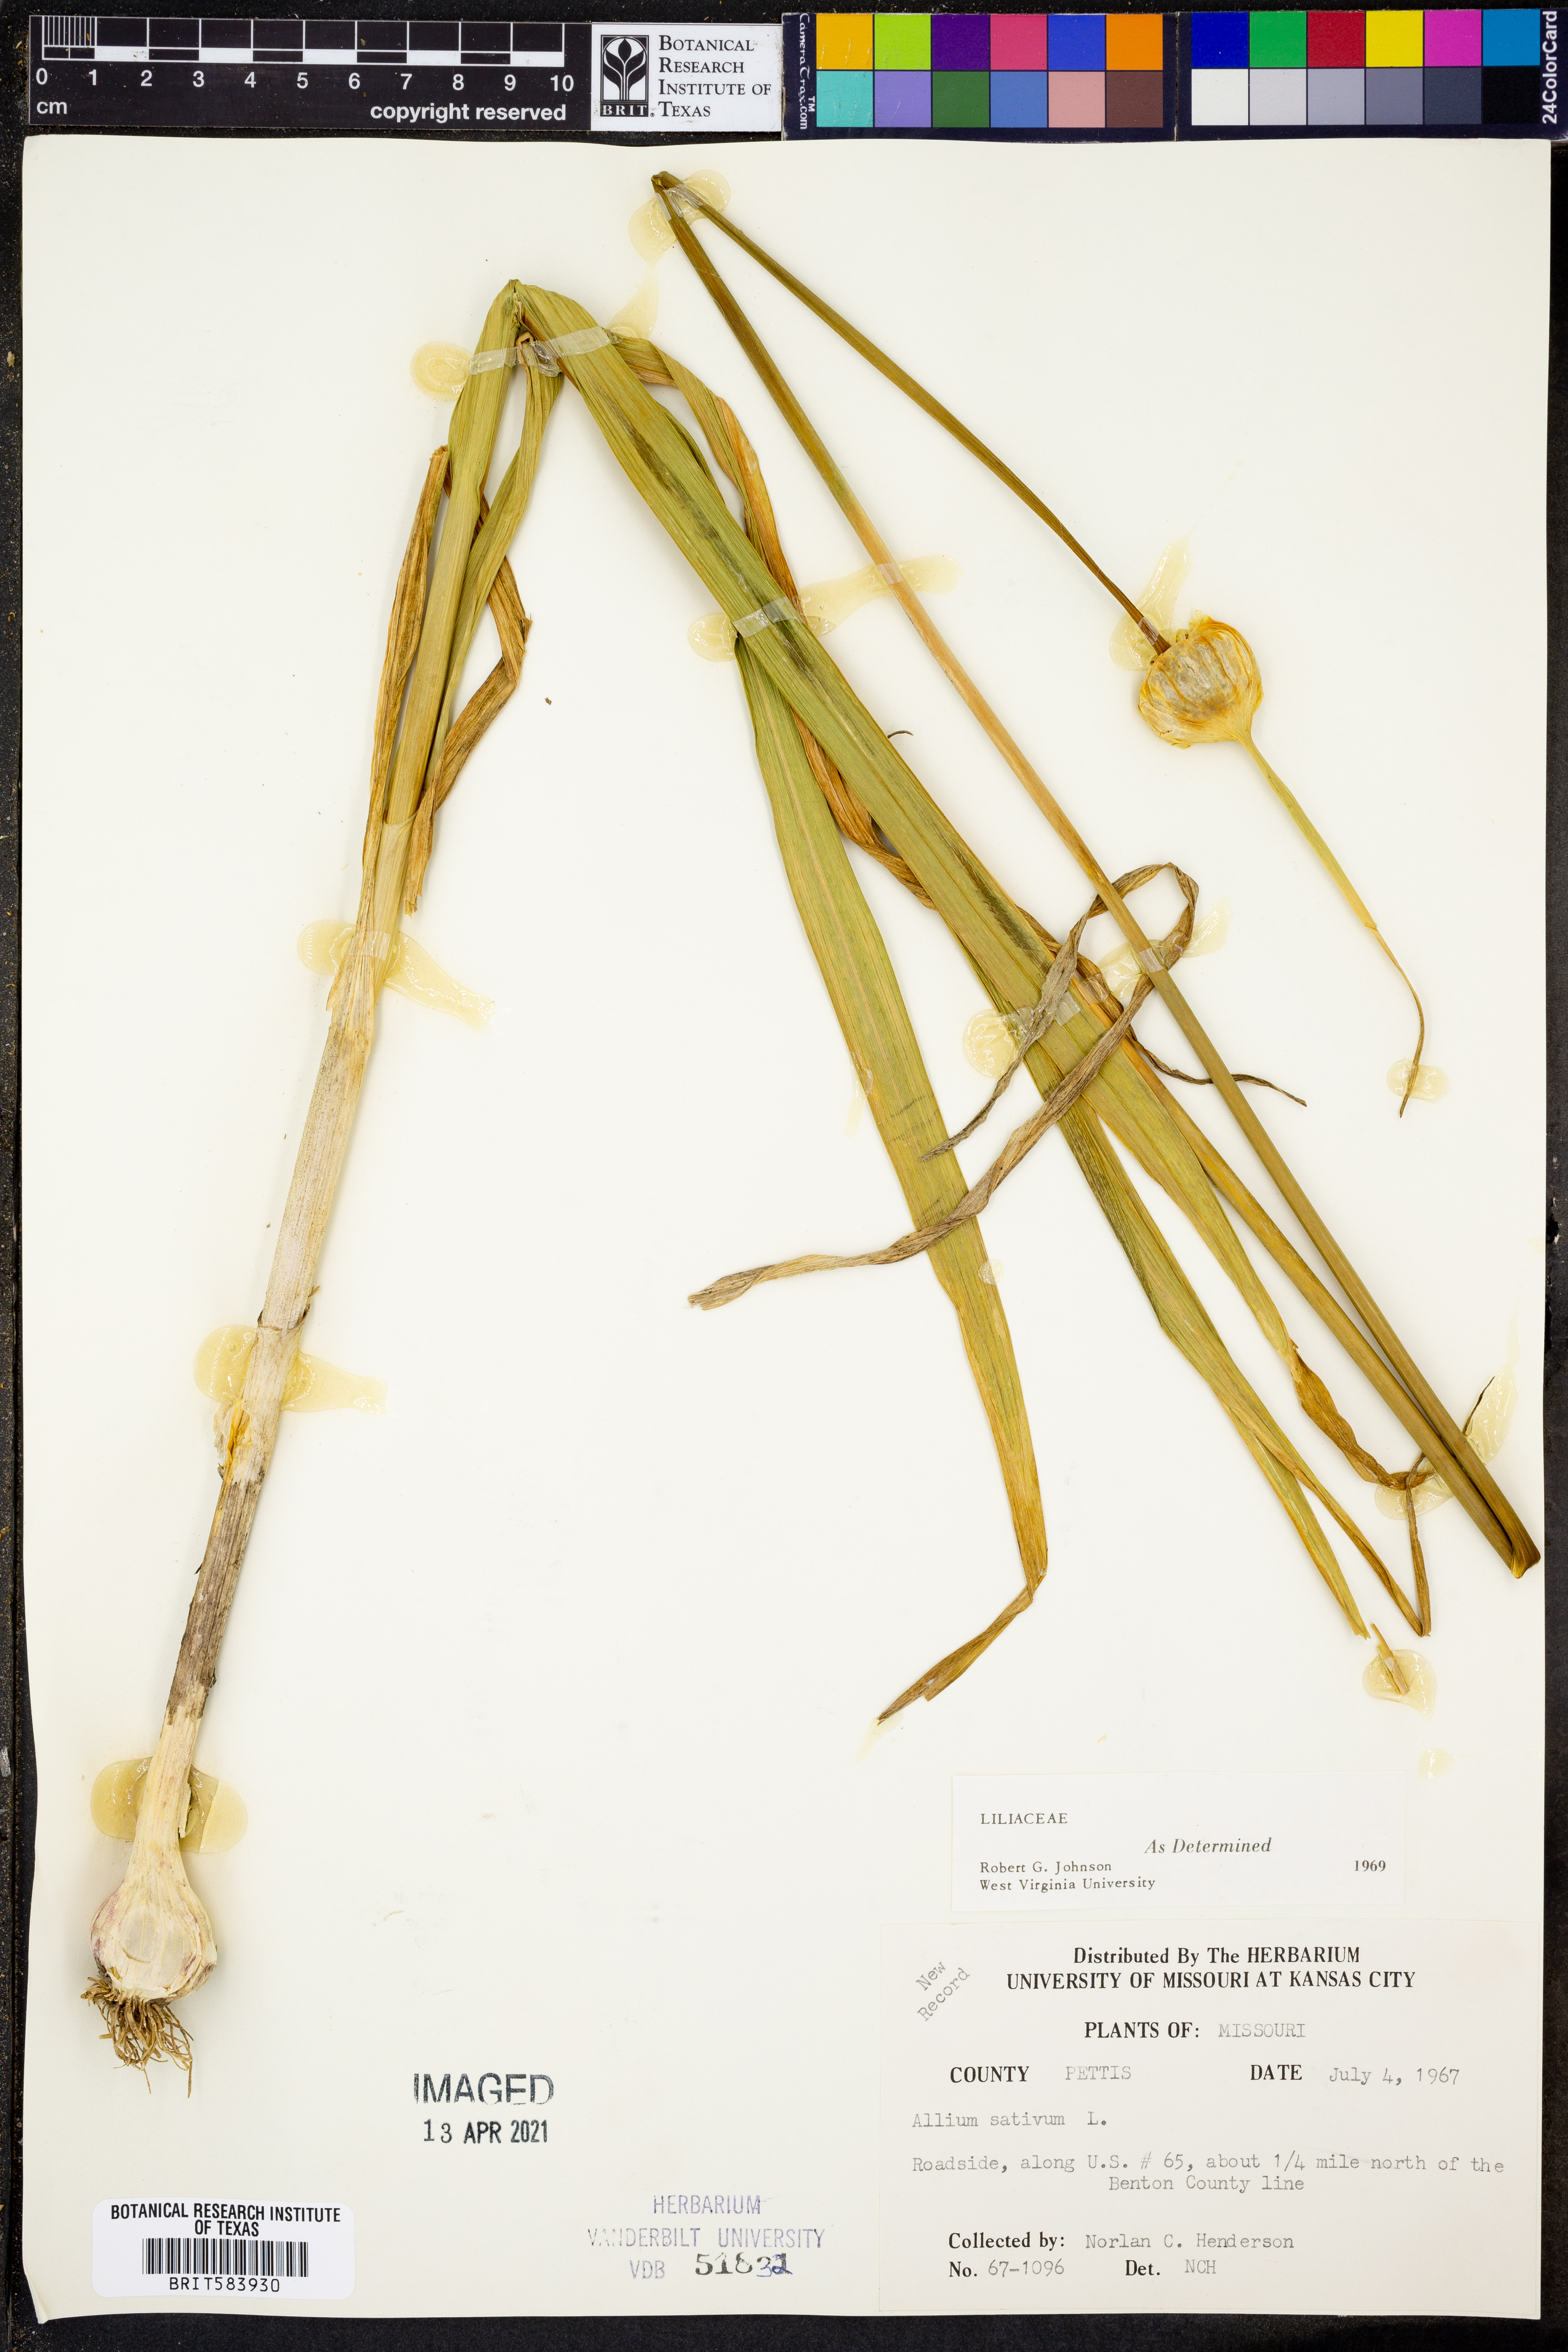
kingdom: Plantae
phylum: Tracheophyta
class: Liliopsida
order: Asparagales
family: Amaryllidaceae
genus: Allium
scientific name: Allium sativum
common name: Garlic
